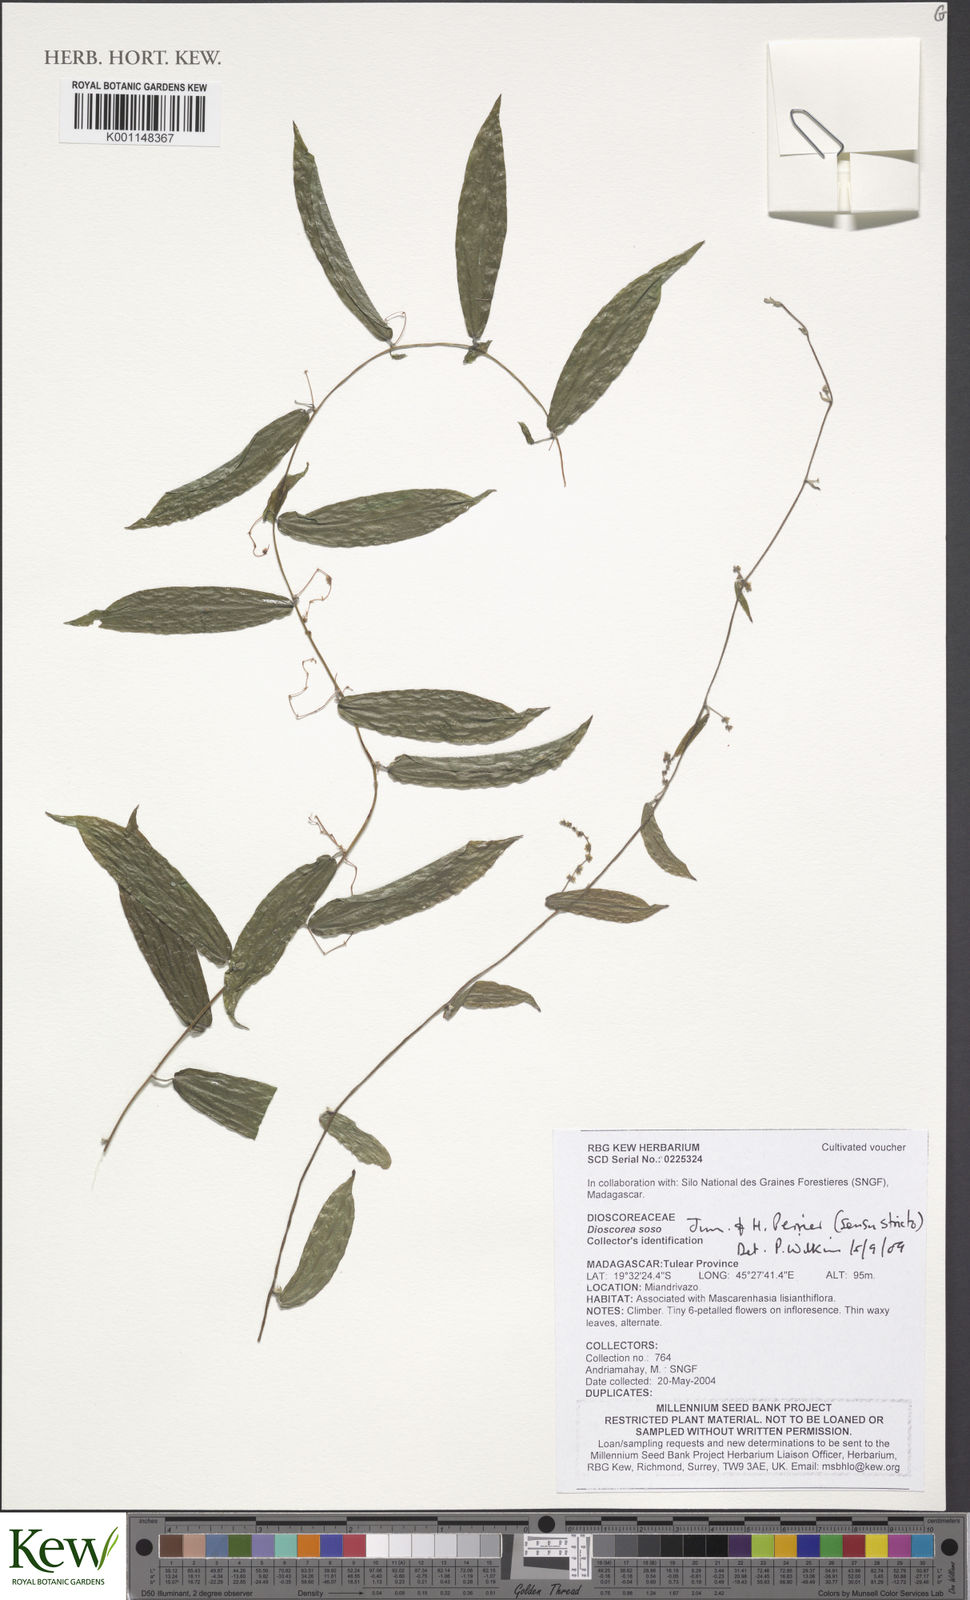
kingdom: Plantae
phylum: Tracheophyta
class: Liliopsida
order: Dioscoreales
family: Dioscoreaceae
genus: Dioscorea
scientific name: Dioscorea soso
